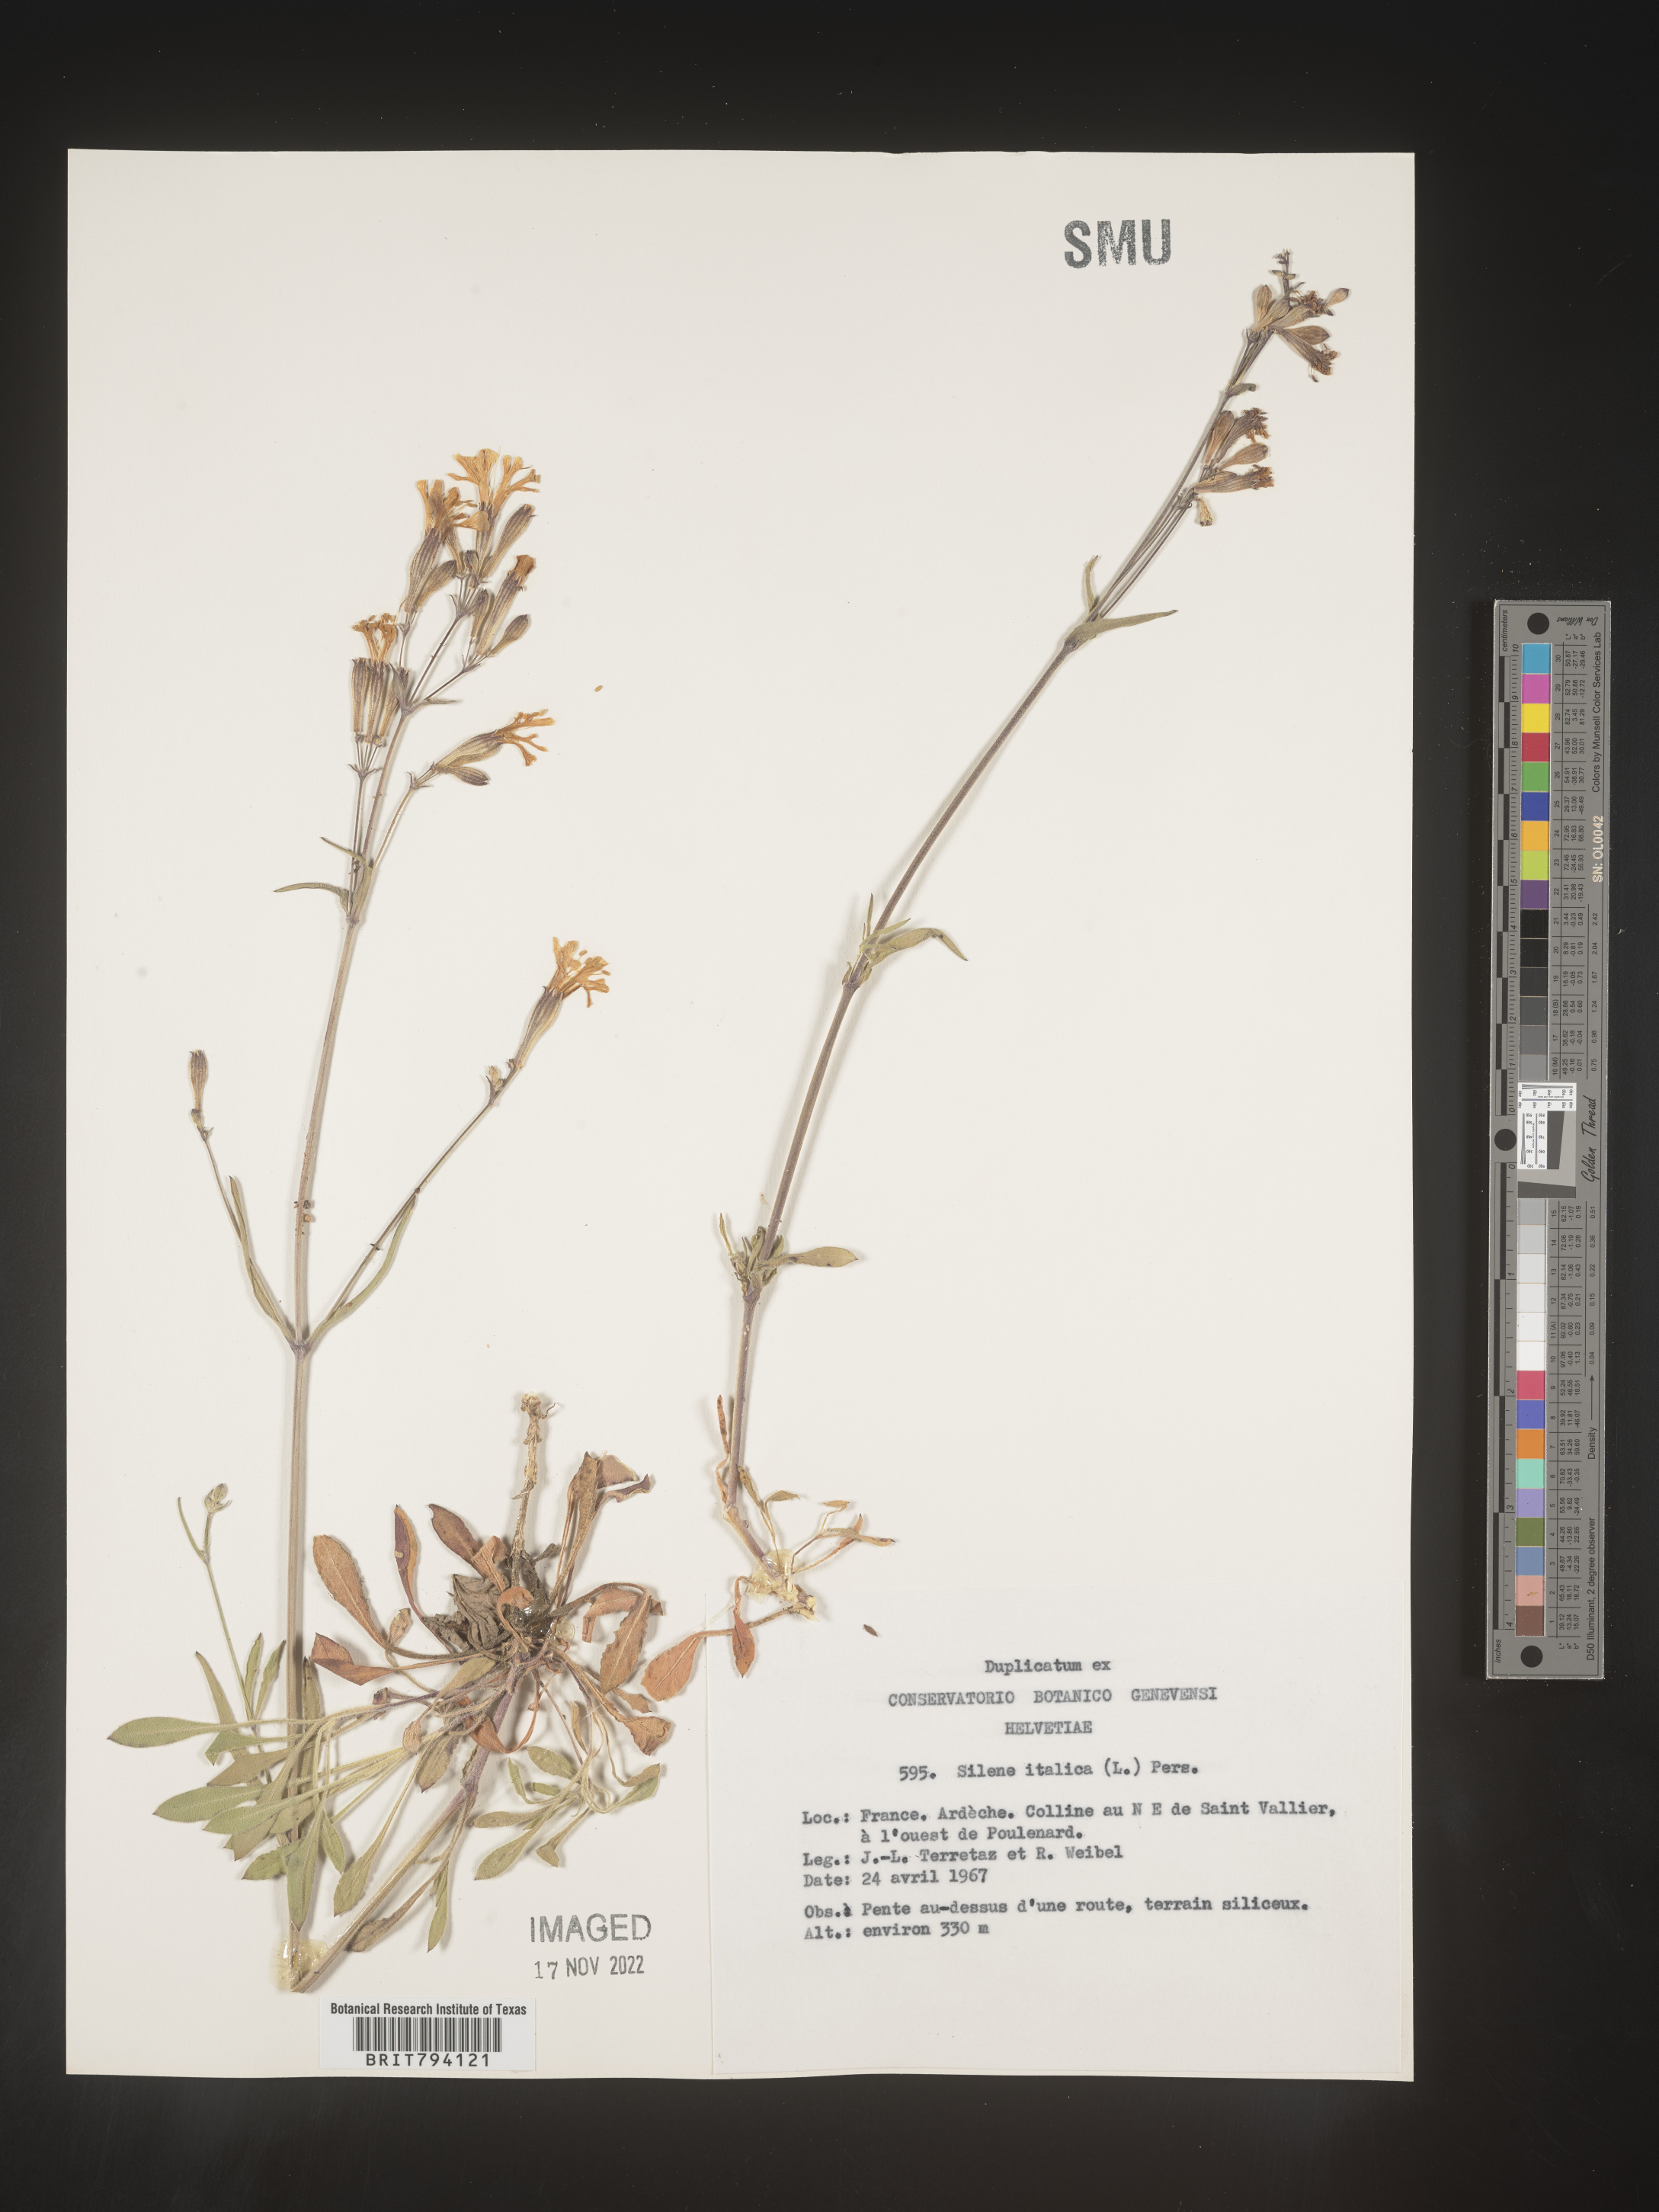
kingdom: Plantae
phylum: Tracheophyta
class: Magnoliopsida
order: Caryophyllales
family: Caryophyllaceae
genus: Silene
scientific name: Silene italica
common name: Italian catchfly
